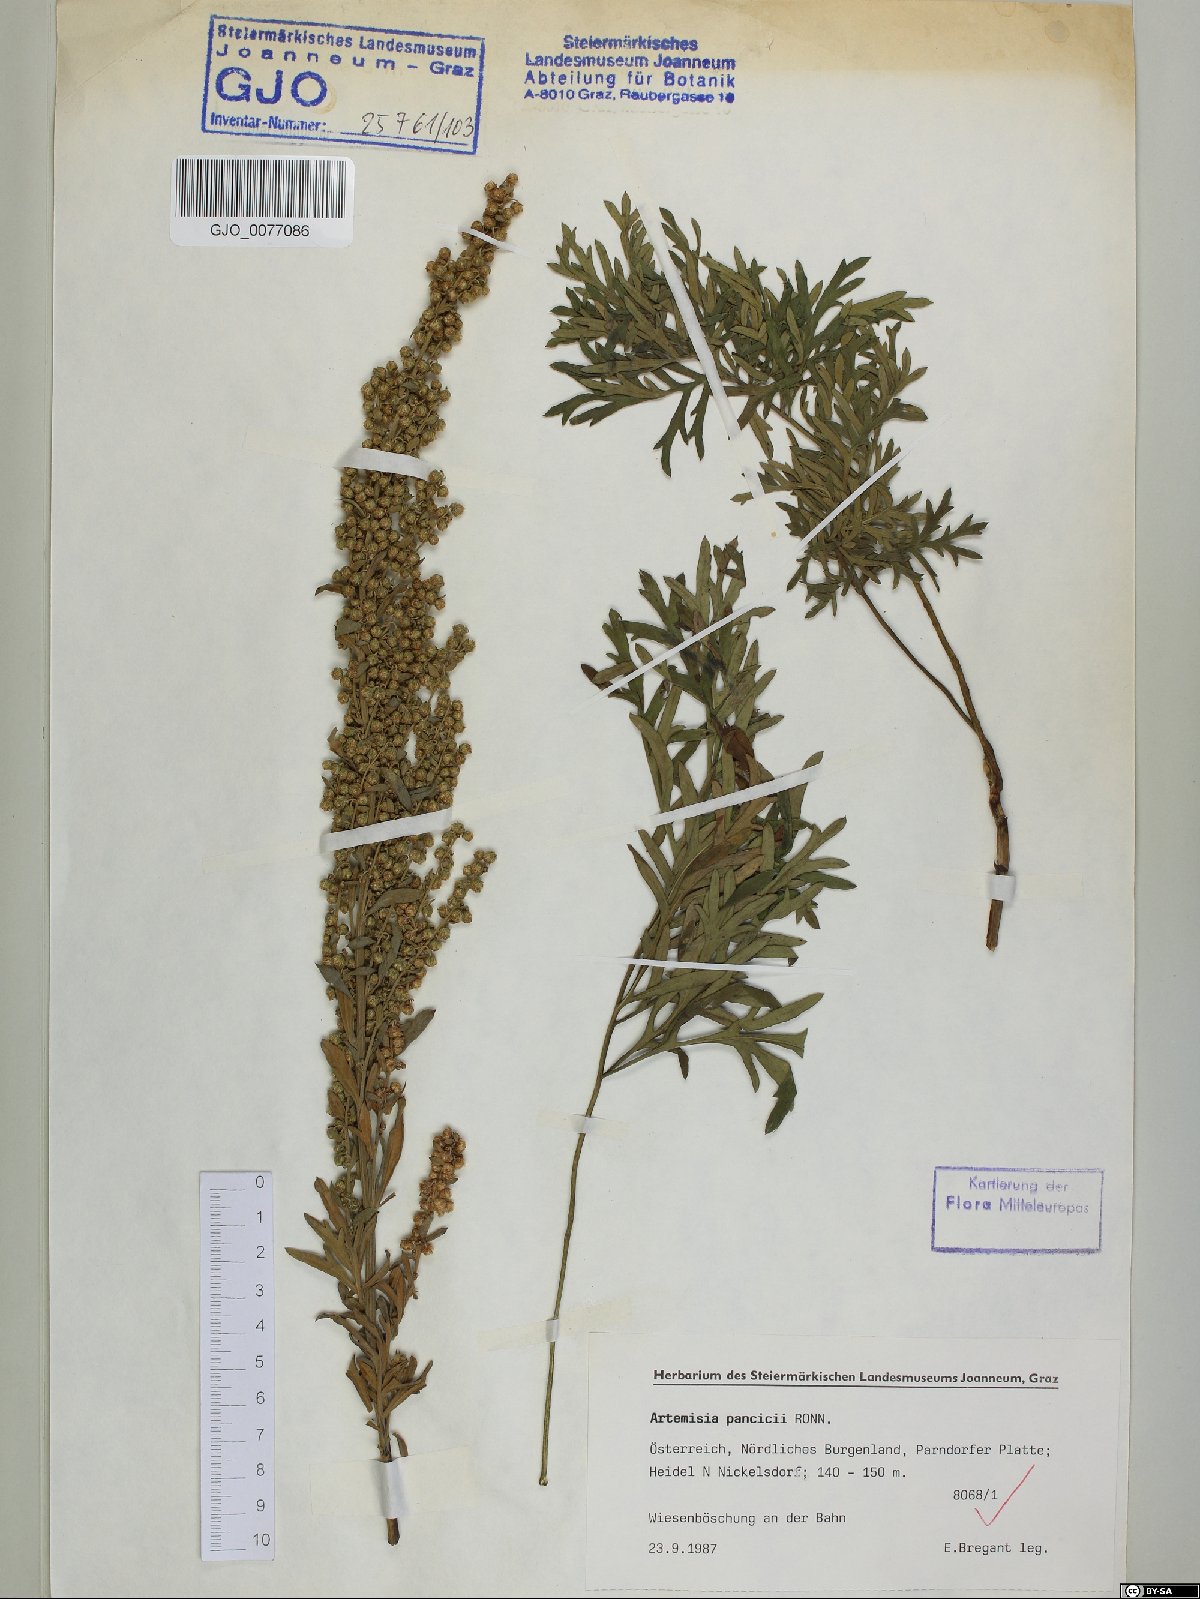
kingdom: Plantae
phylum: Tracheophyta
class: Magnoliopsida
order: Asterales
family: Asteraceae
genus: Artemisia
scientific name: Artemisia pancicii
